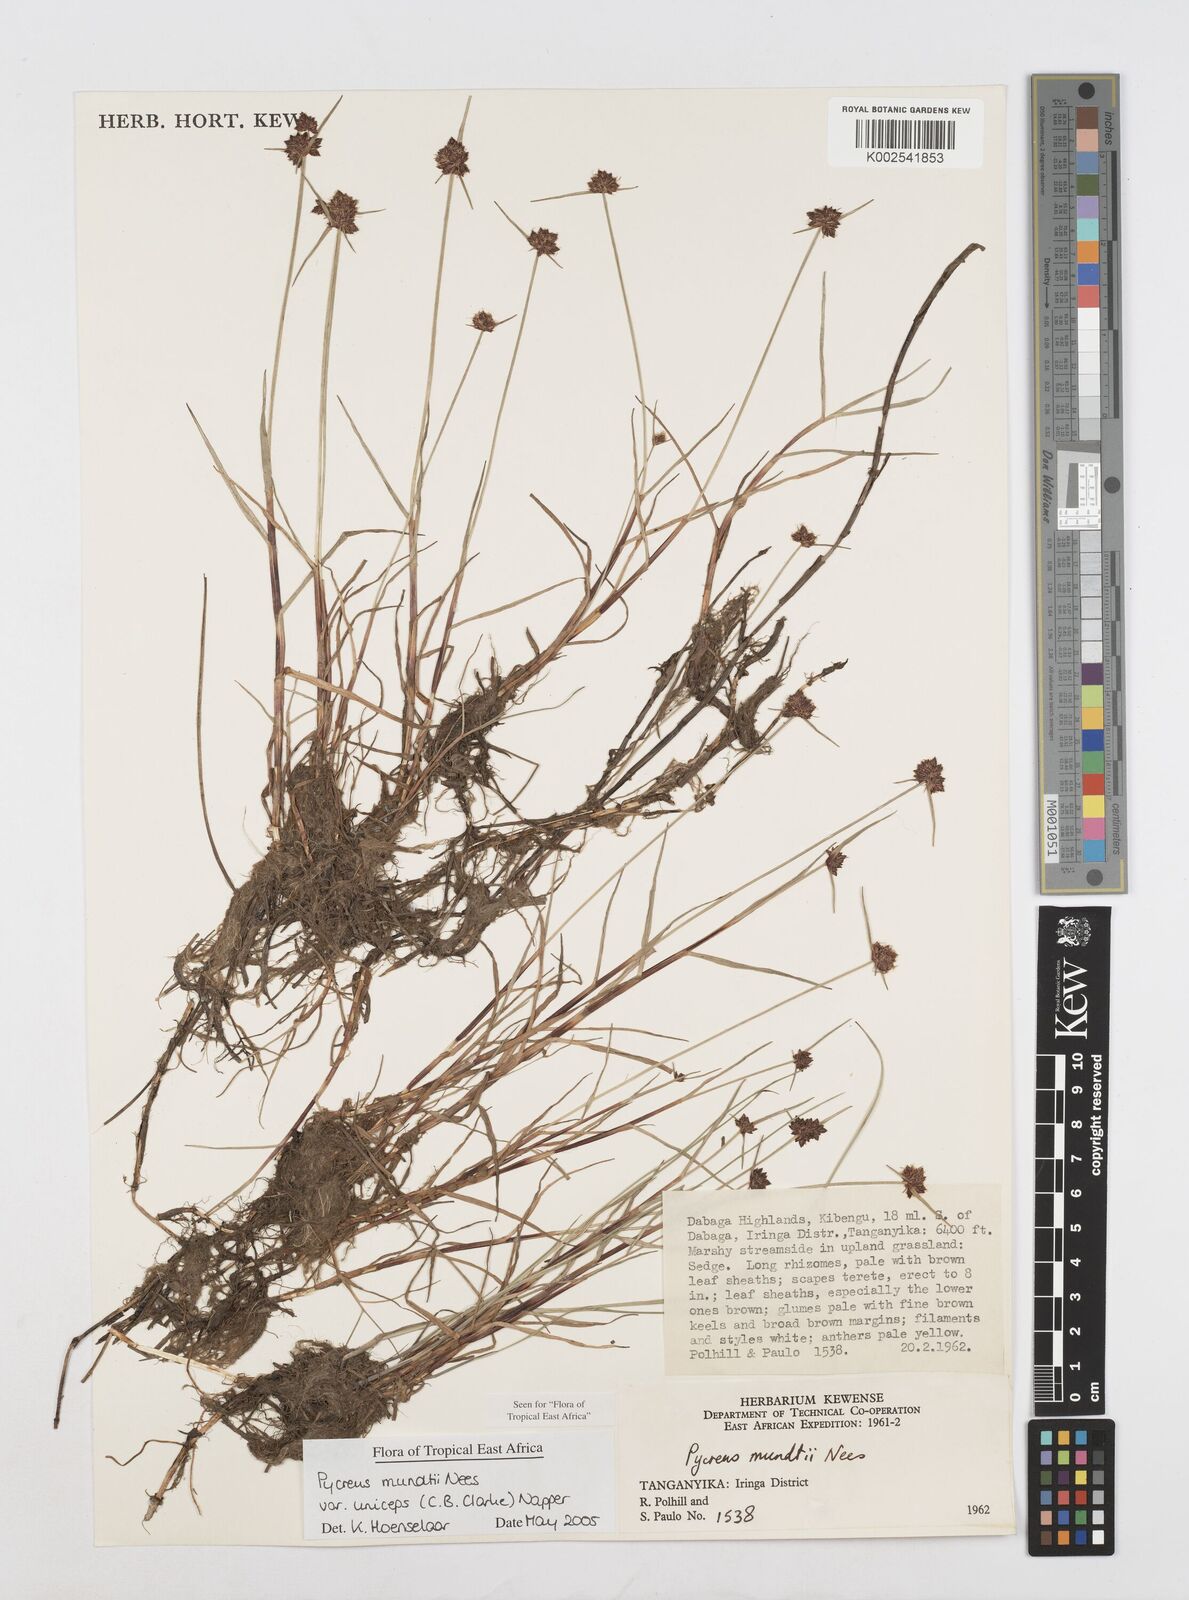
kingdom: Plantae
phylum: Tracheophyta
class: Liliopsida
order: Poales
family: Cyperaceae
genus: Cyperus
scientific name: Cyperus mundii
